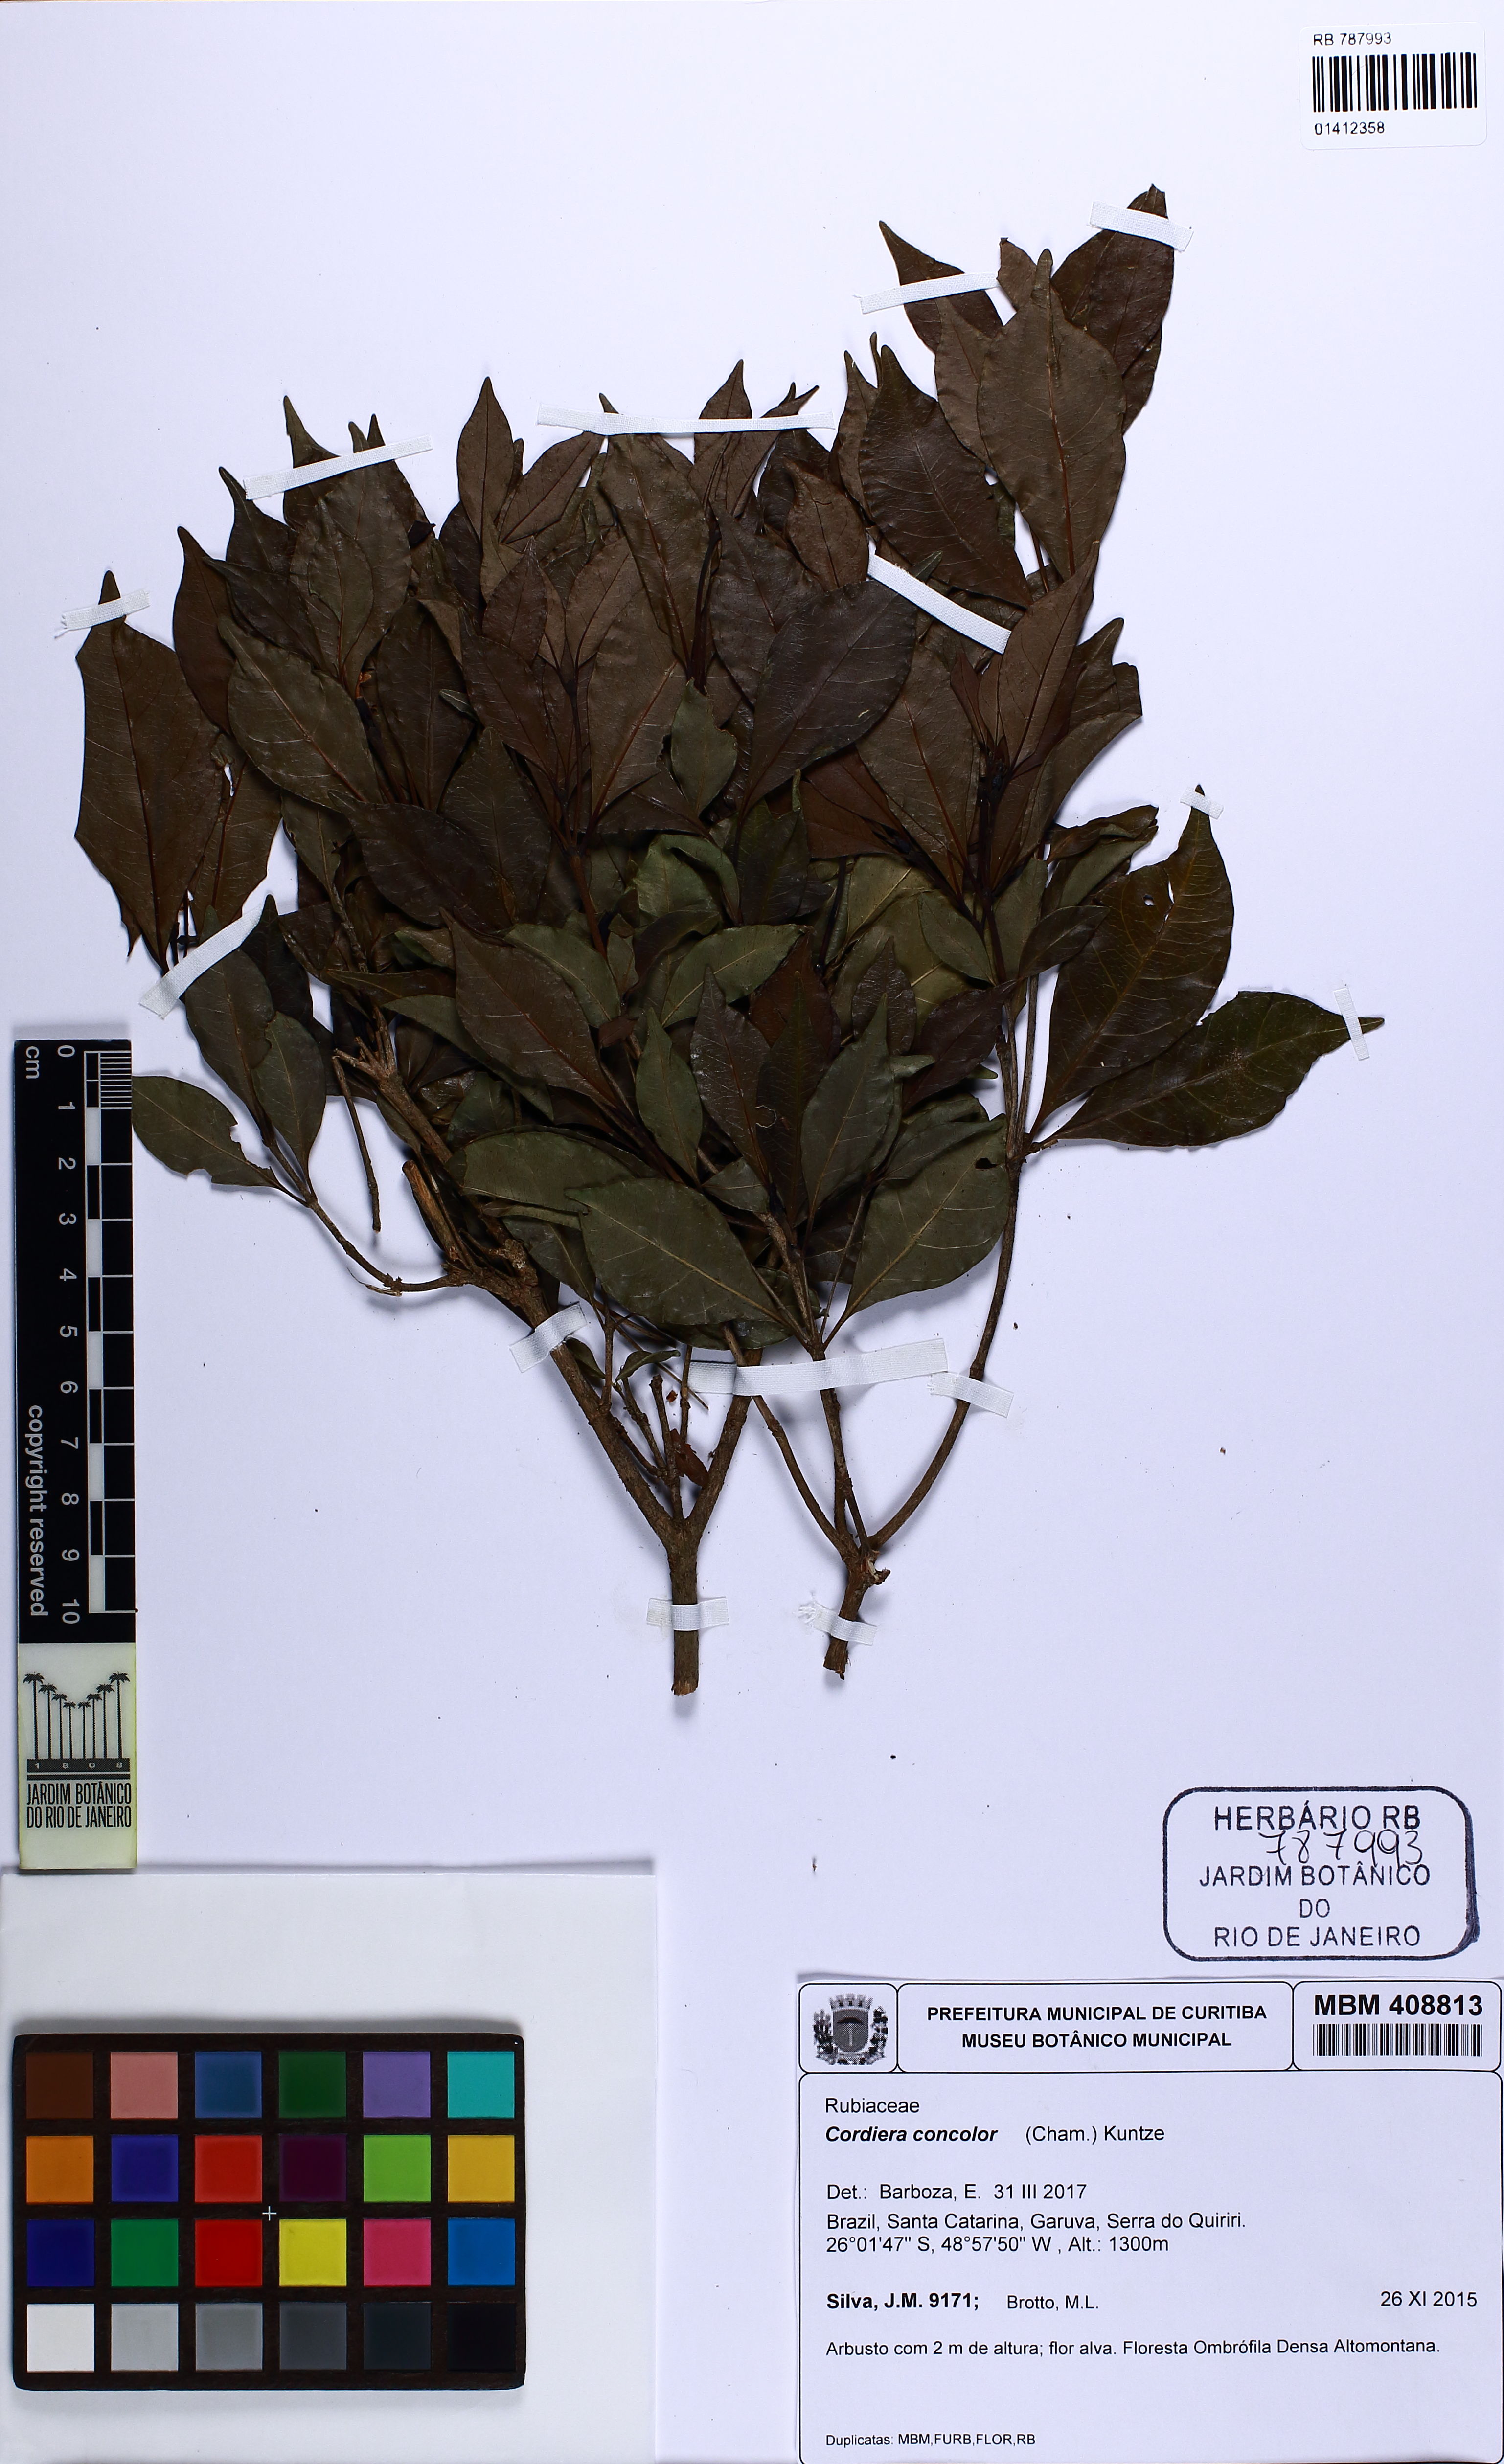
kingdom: Plantae
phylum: Tracheophyta
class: Magnoliopsida
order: Gentianales
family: Rubiaceae
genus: Cordiera
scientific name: Cordiera concolor
